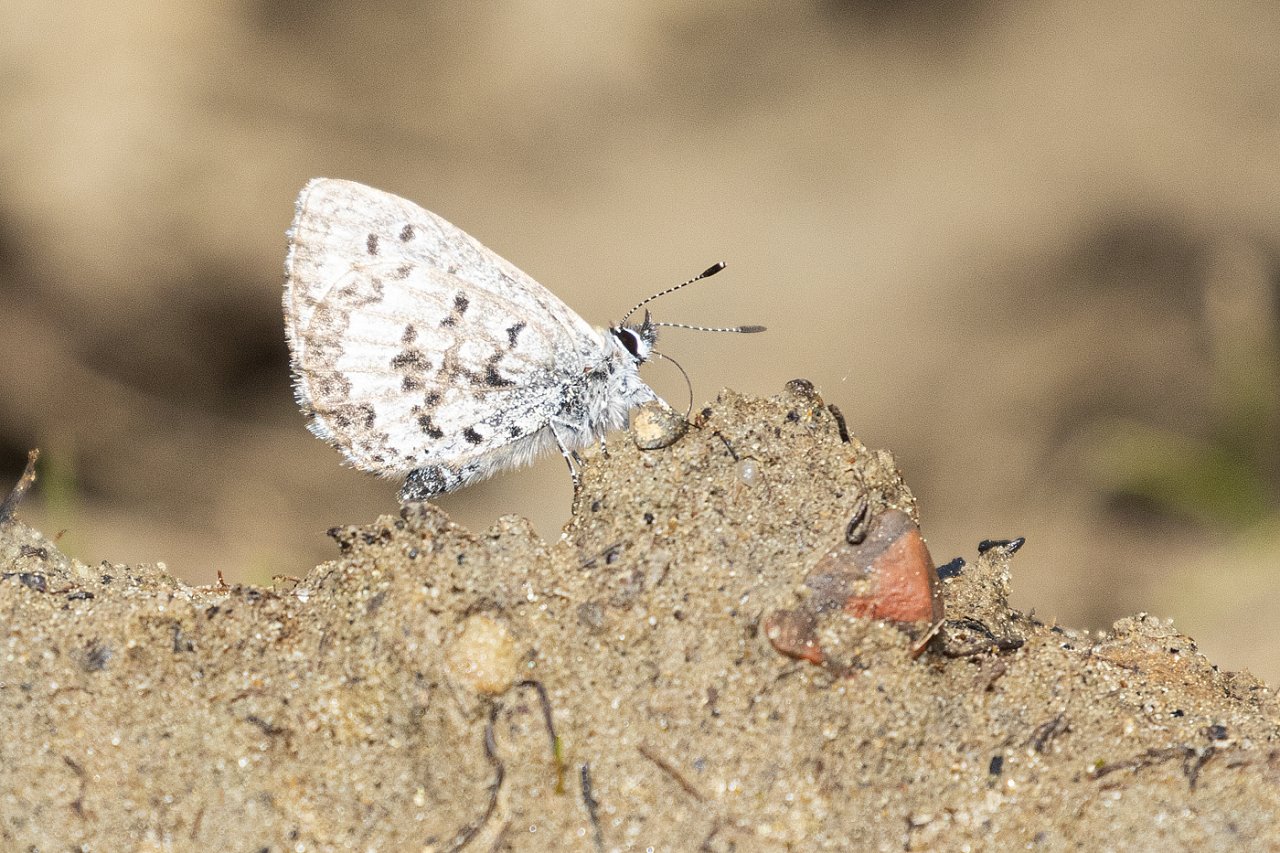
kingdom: Animalia
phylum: Arthropoda
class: Insecta
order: Lepidoptera
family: Lycaenidae
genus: Celastrina
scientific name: Celastrina ladon
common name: Spring Azure
